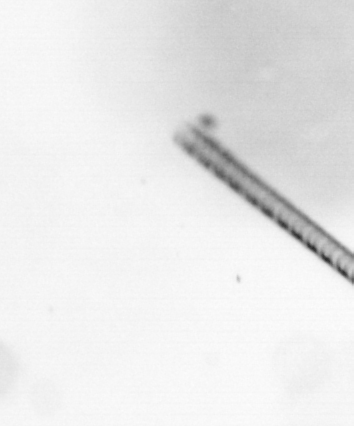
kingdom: Chromista
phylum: Ochrophyta
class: Bacillariophyceae
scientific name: Bacillariophyceae
